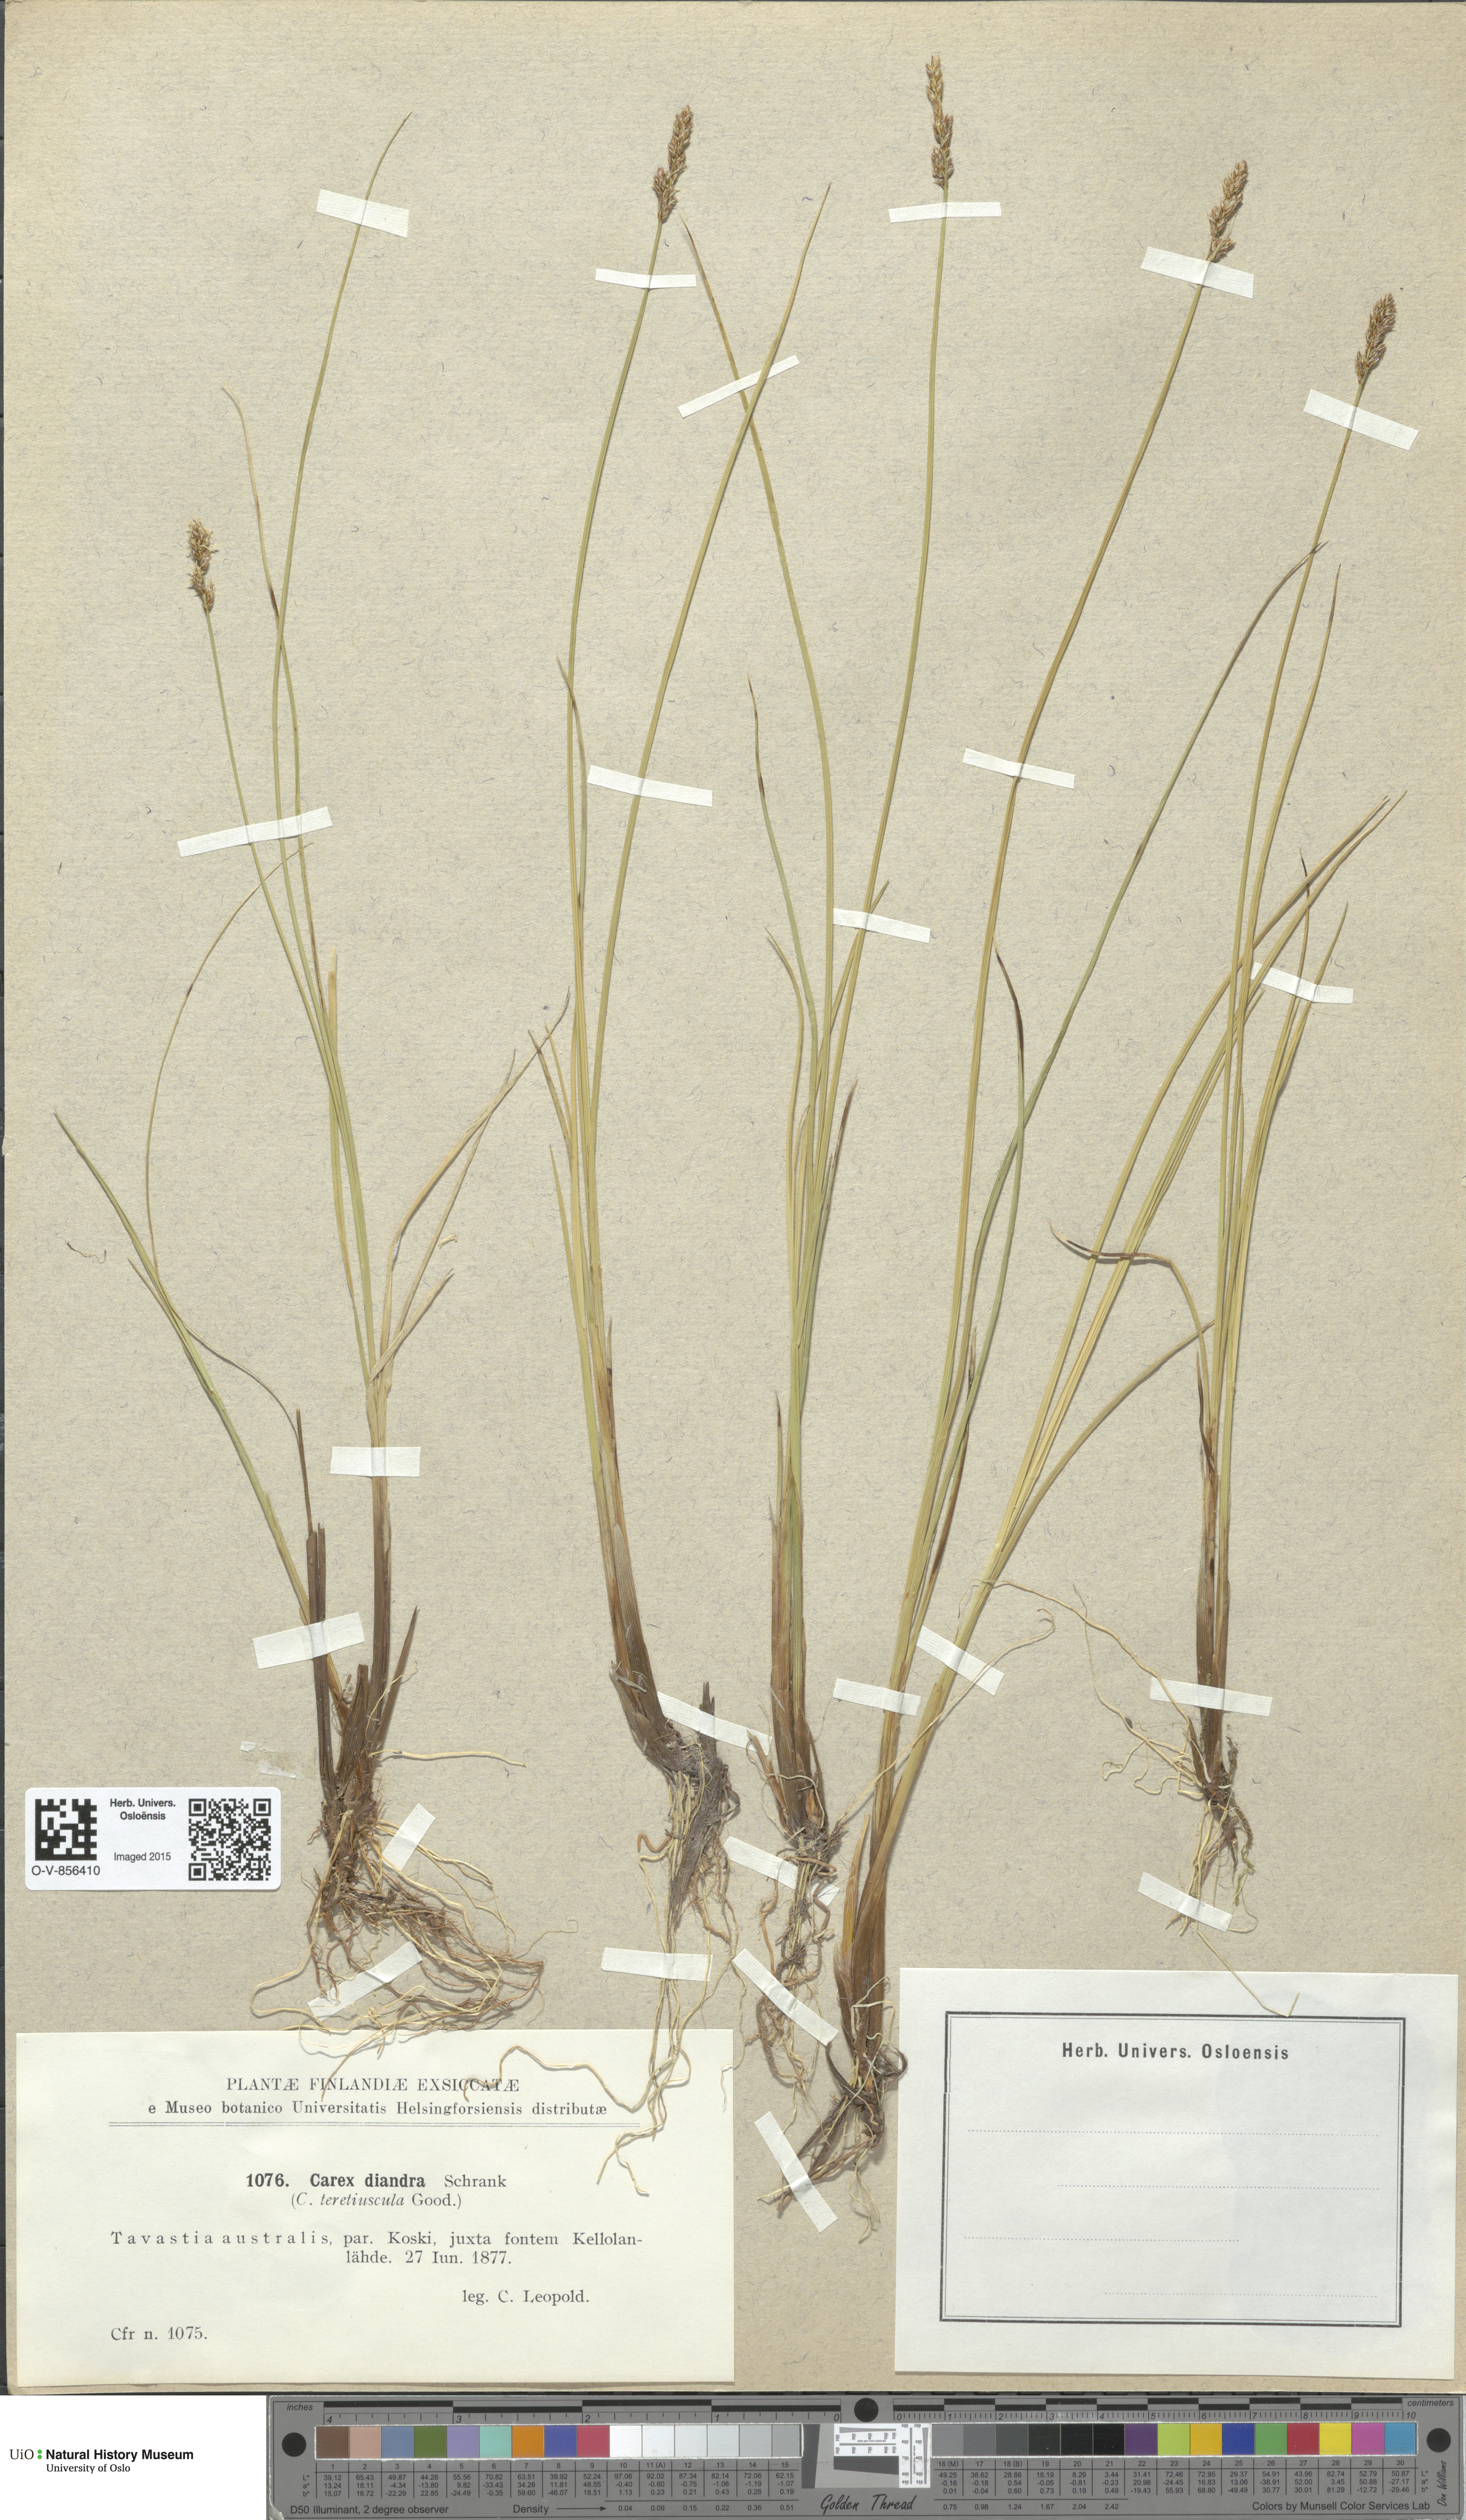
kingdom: Plantae
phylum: Tracheophyta
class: Liliopsida
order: Poales
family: Cyperaceae
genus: Carex
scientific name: Carex diandra
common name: Lesser tussock-sedge
